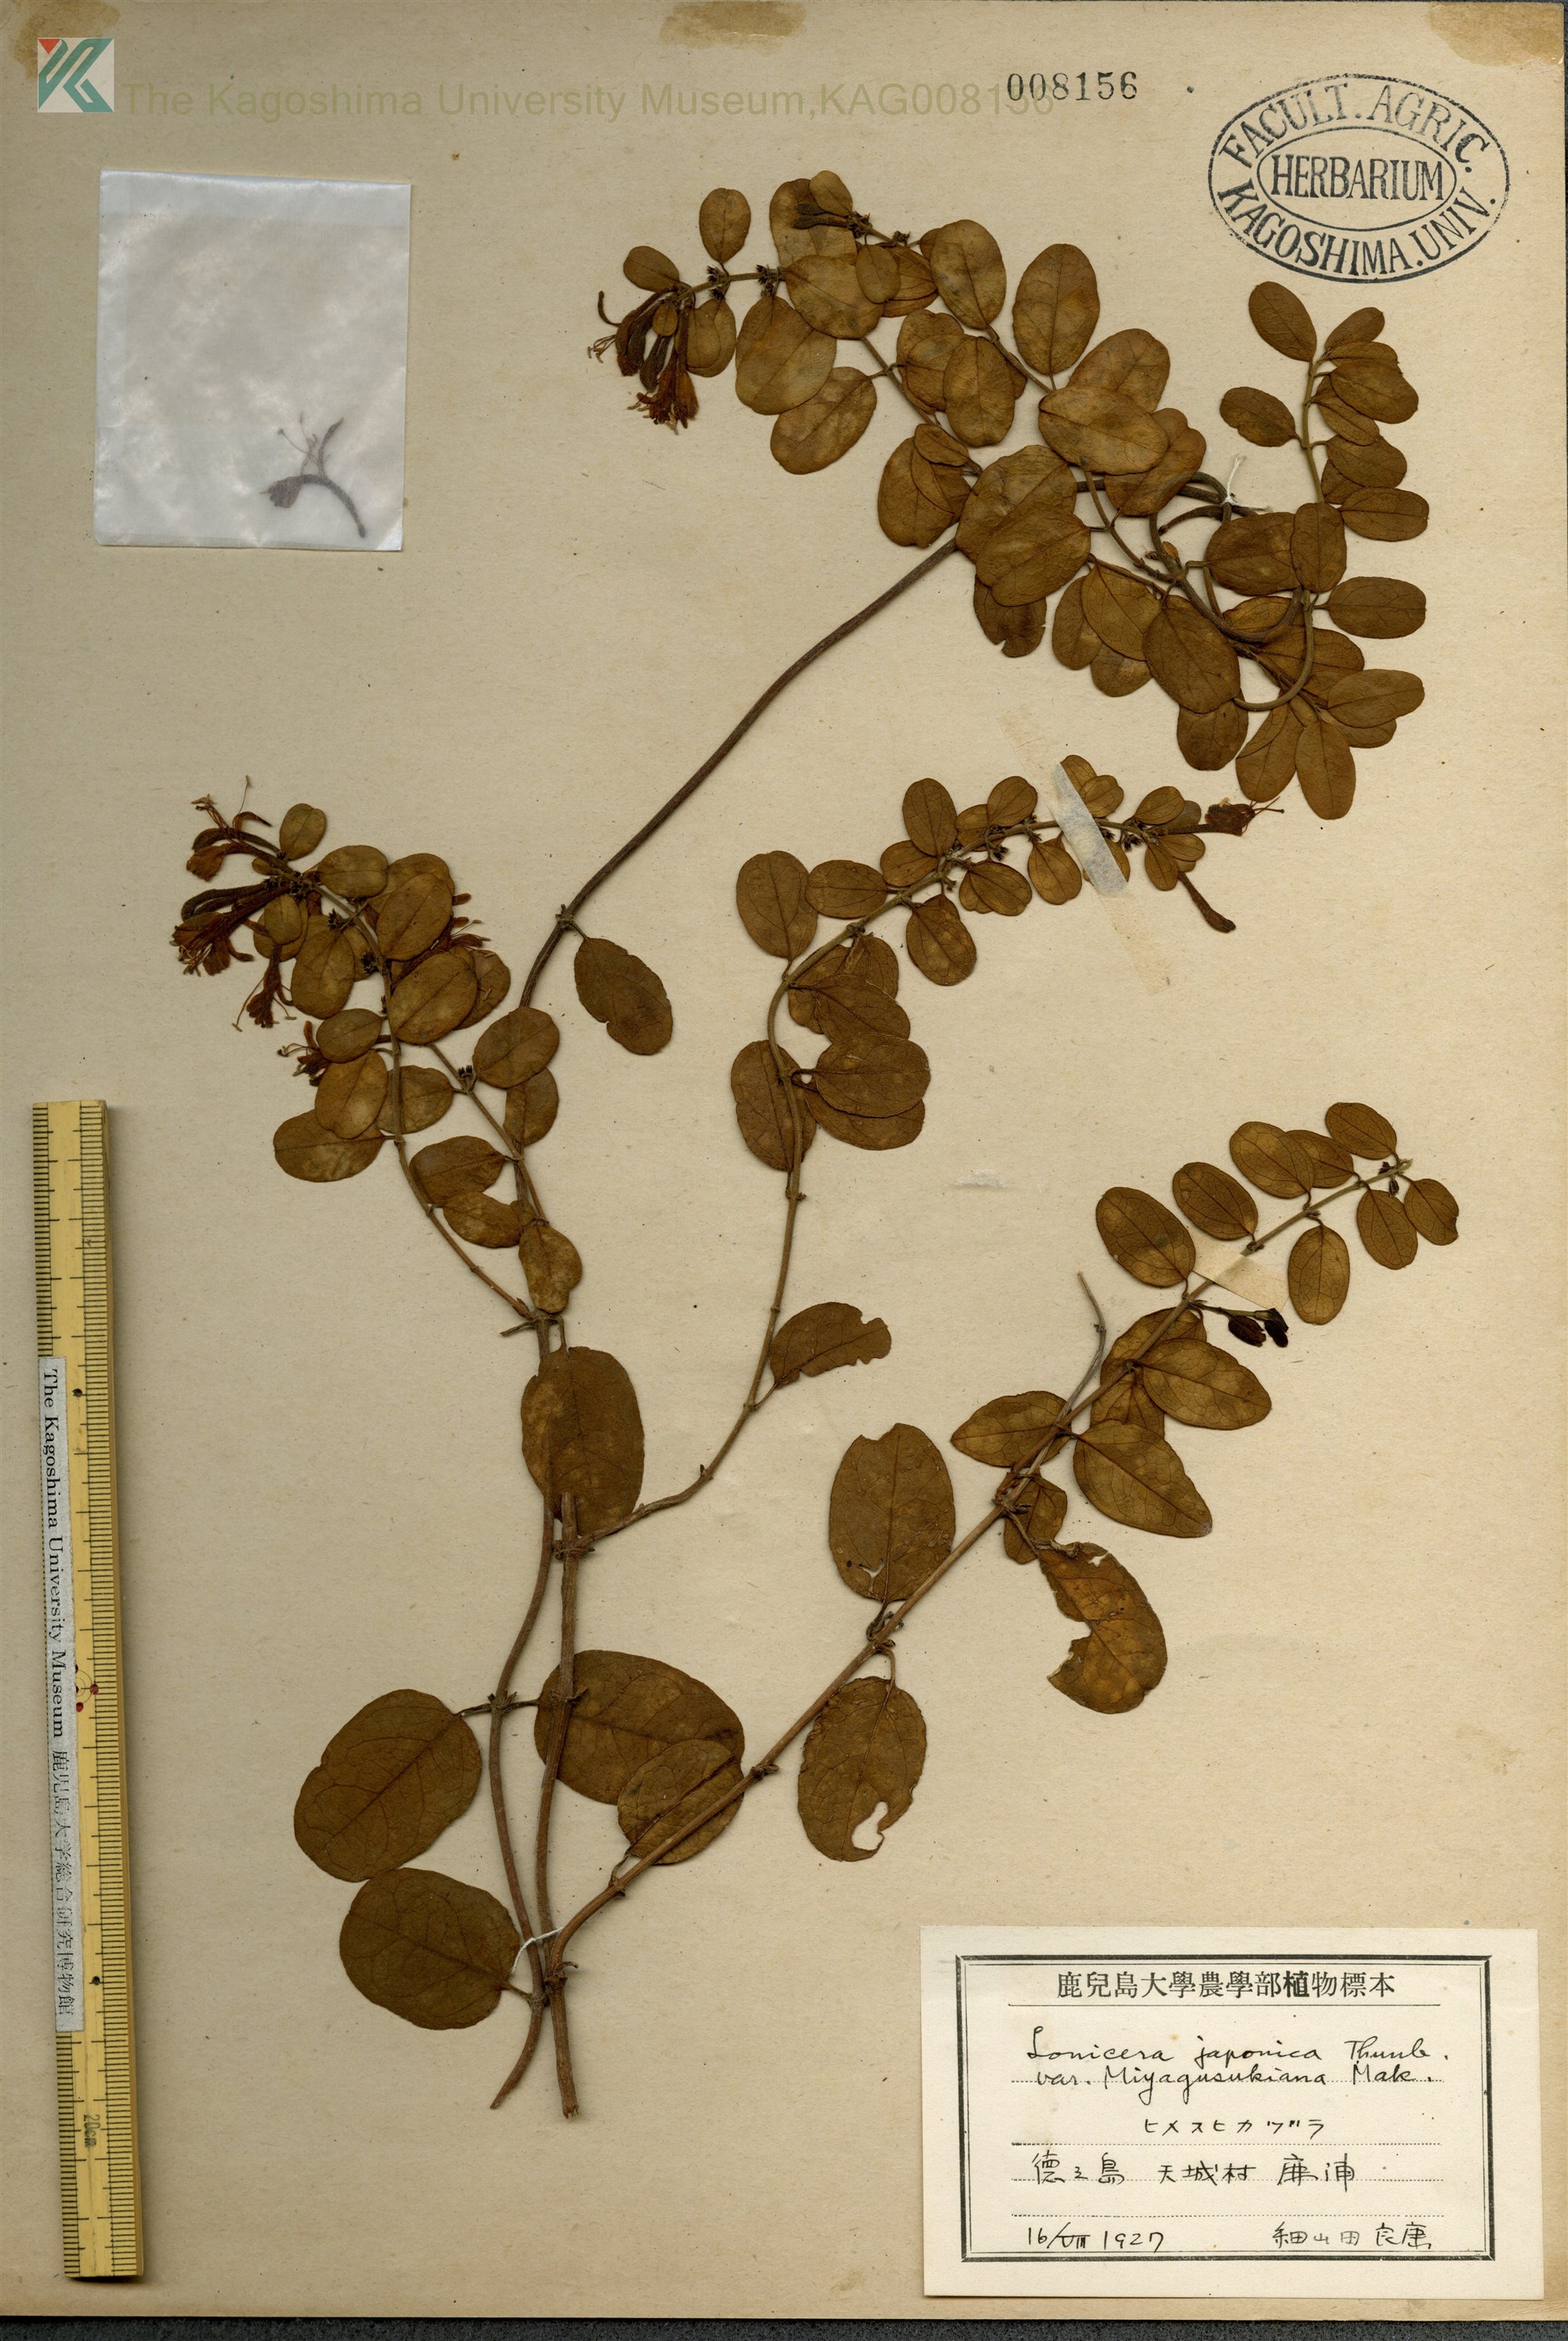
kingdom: Plantae
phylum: Tracheophyta
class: Magnoliopsida
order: Dipsacales
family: Caprifoliaceae
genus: Lonicera
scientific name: Lonicera japonica
